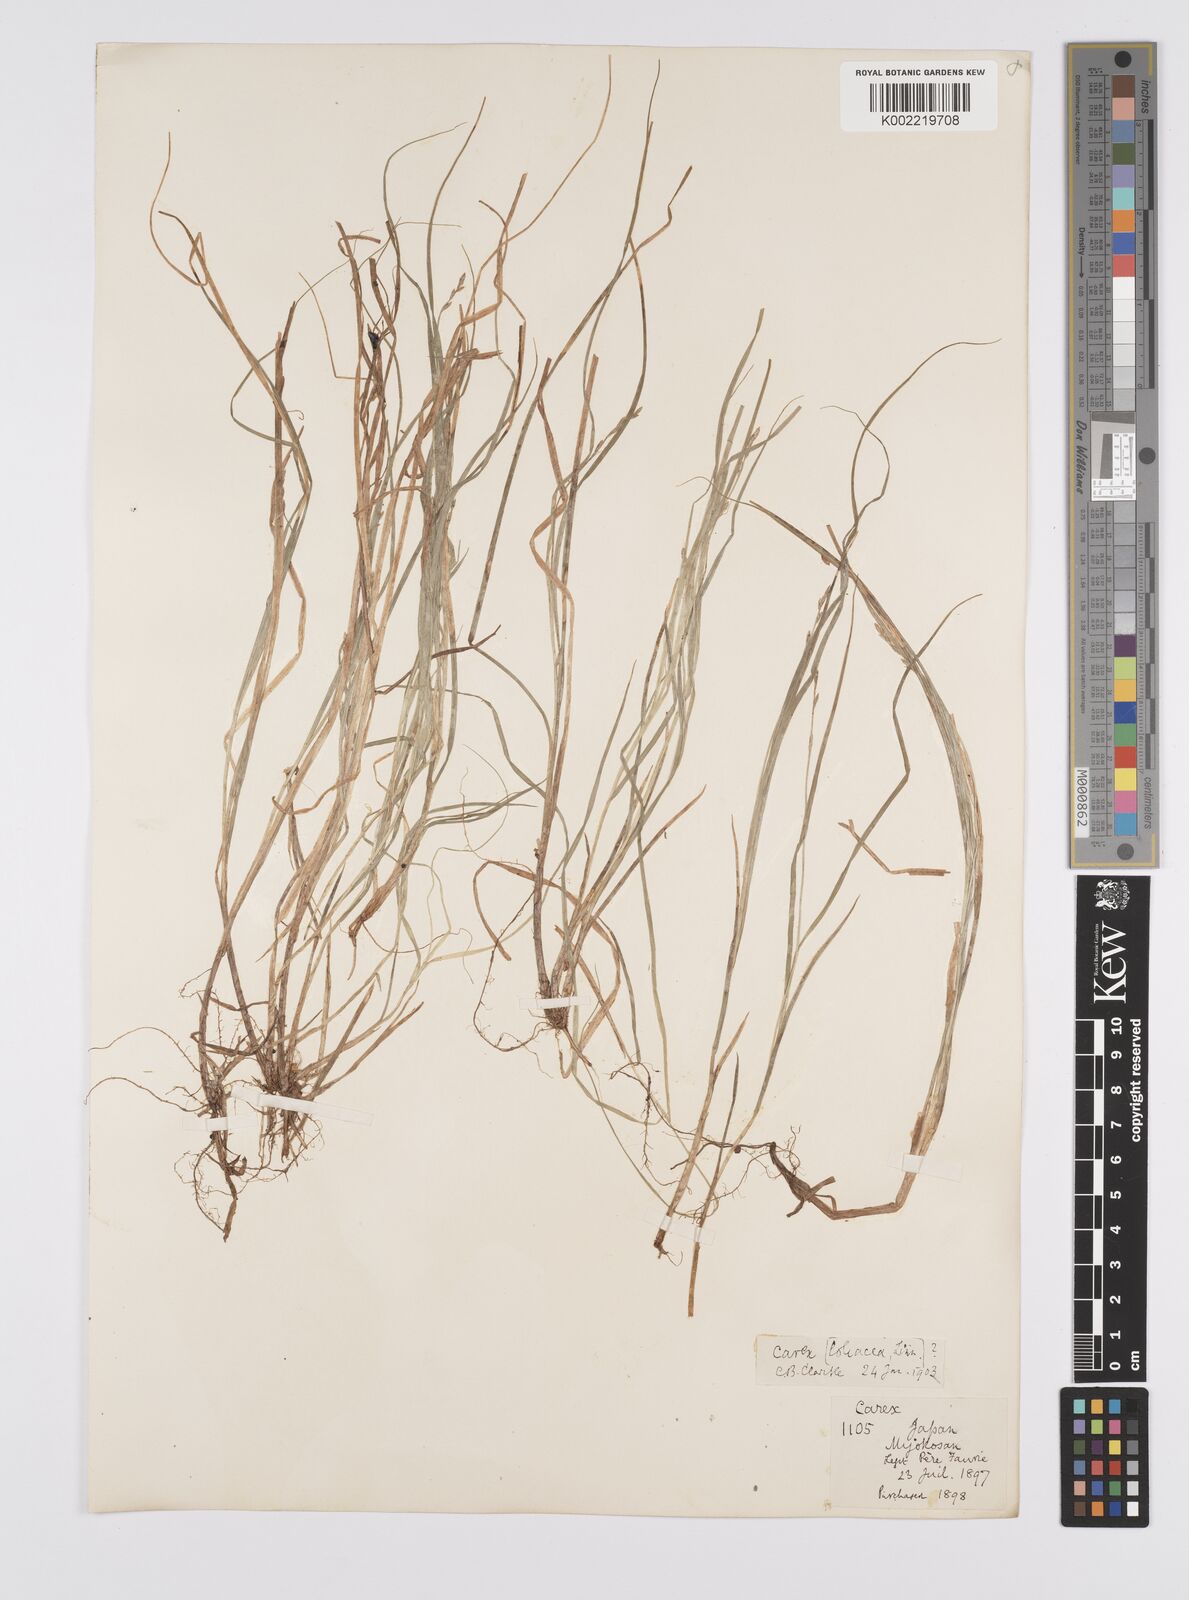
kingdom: Plantae
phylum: Tracheophyta
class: Liliopsida
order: Poales
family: Cyperaceae
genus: Carex
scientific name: Carex loliacea
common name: Ryegrass sedge
